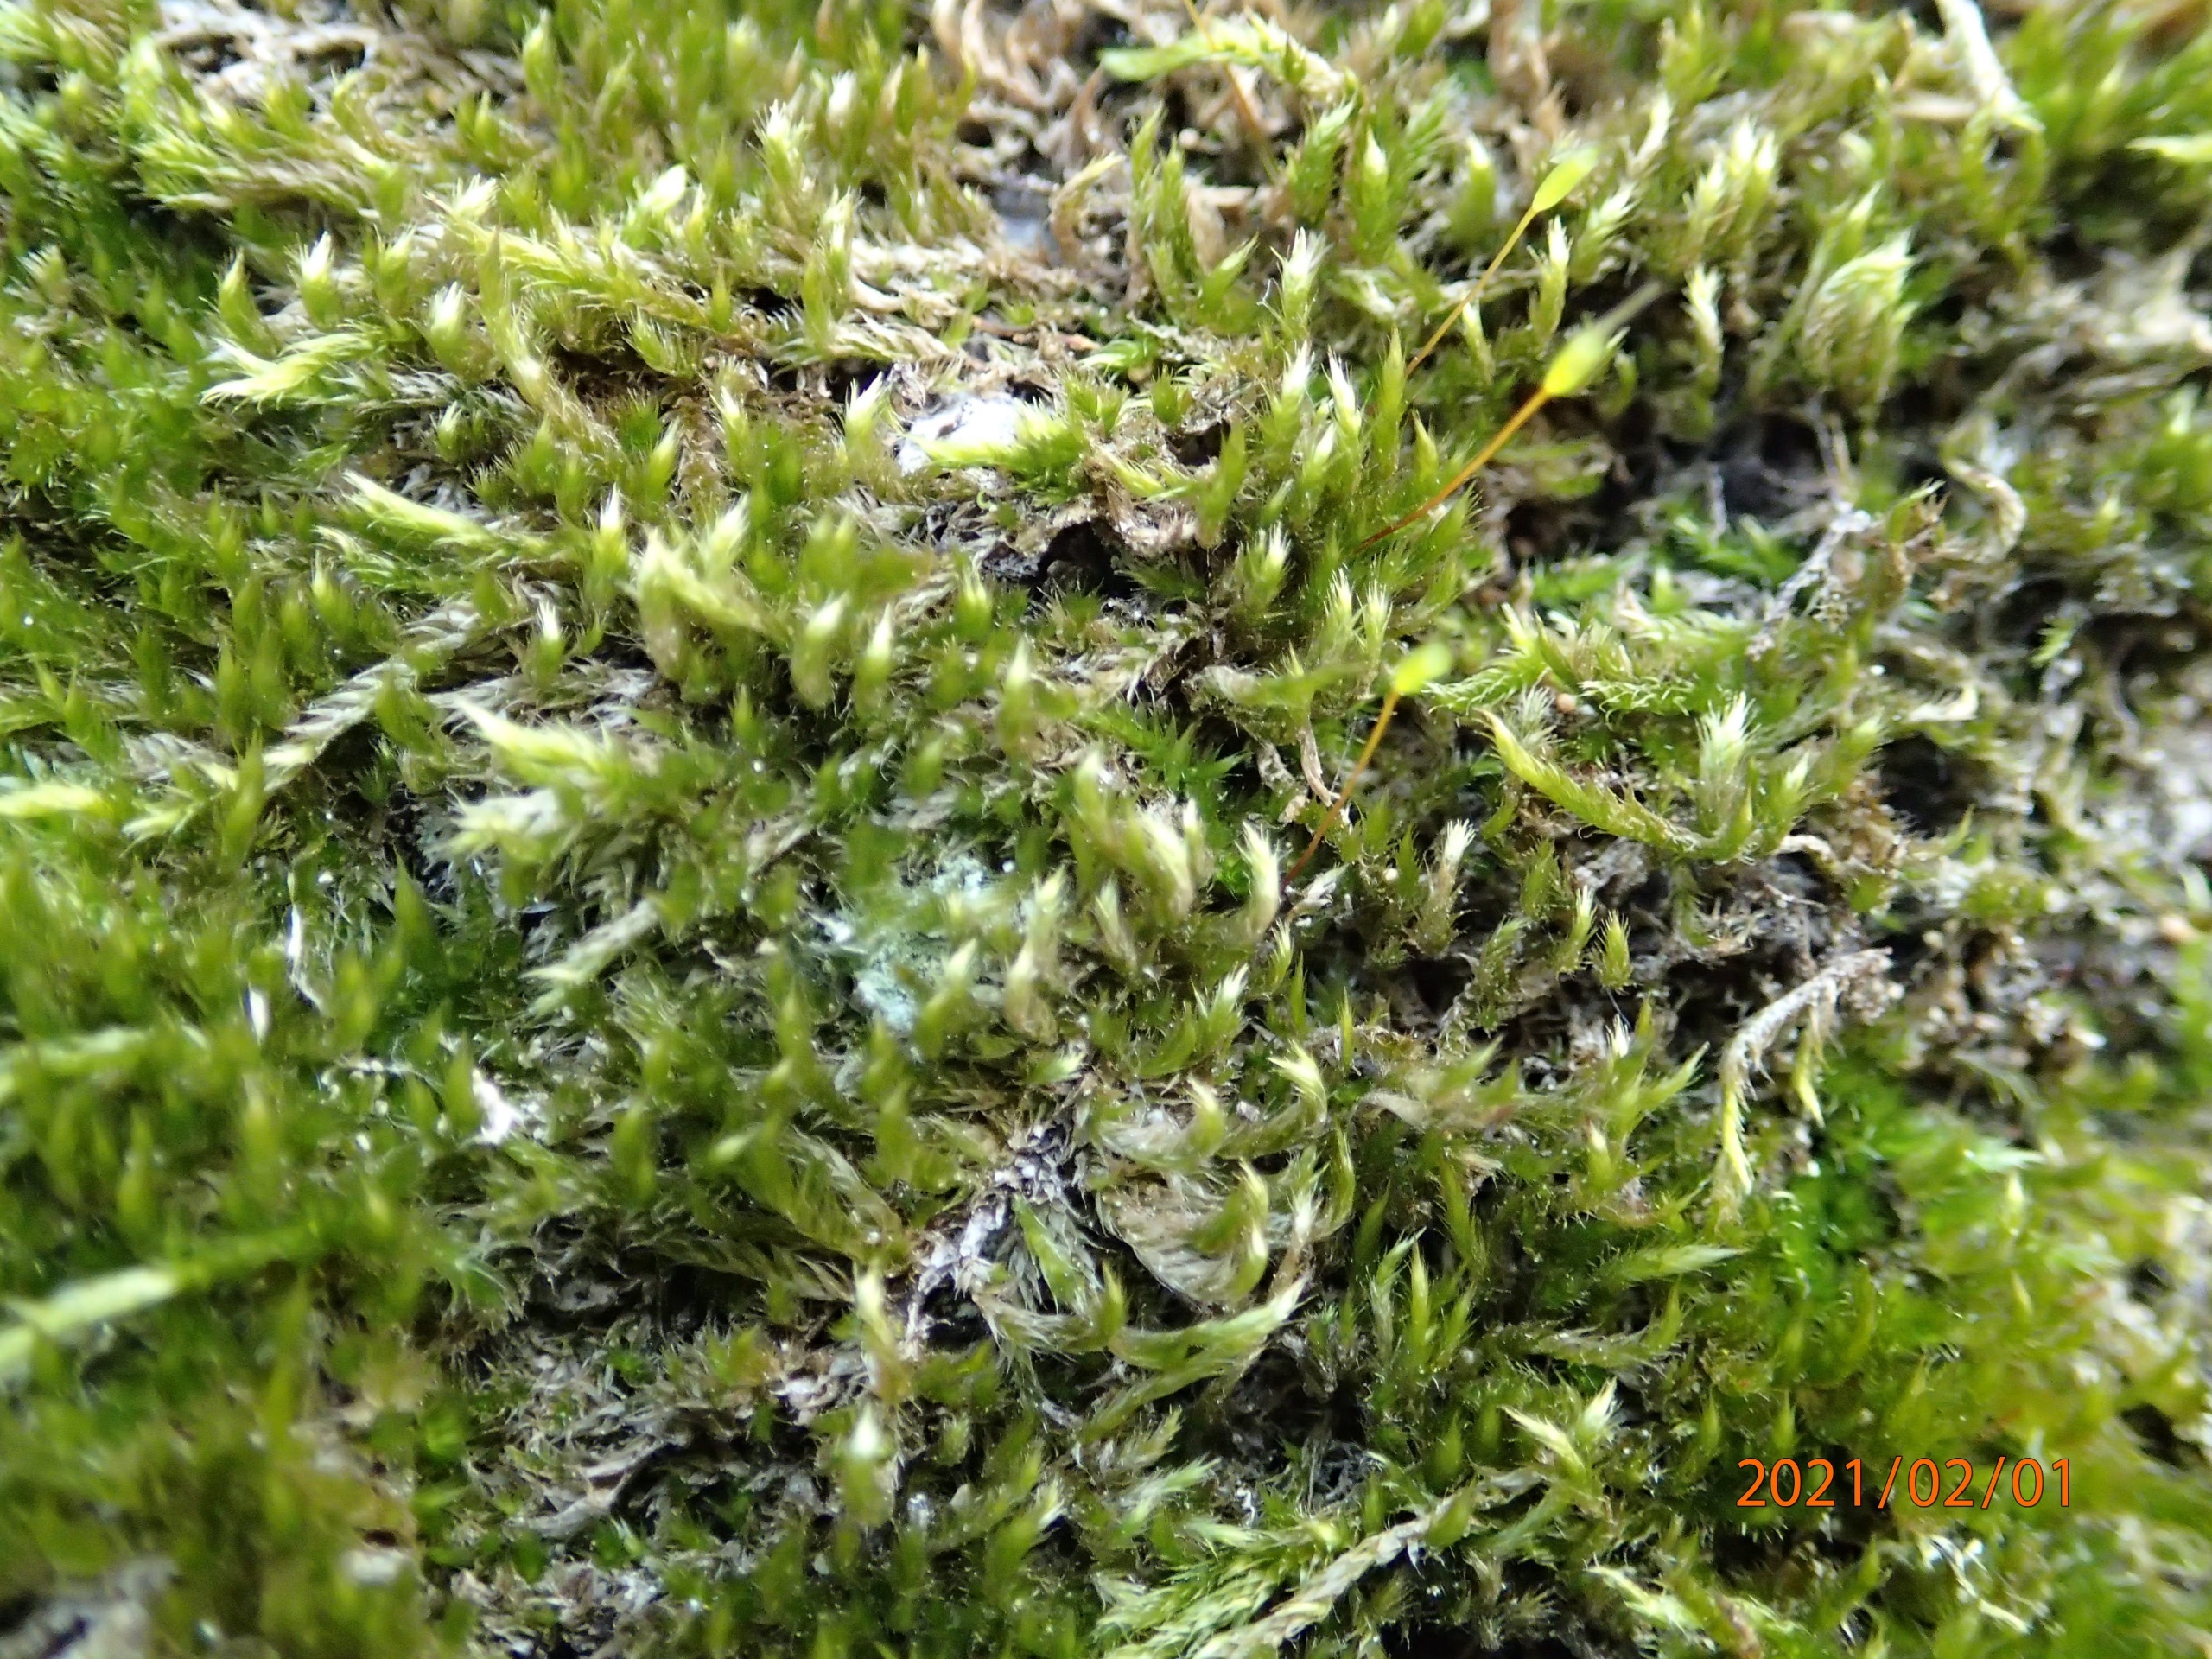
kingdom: Plantae
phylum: Bryophyta
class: Bryopsida
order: Hypnales
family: Hypnaceae
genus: Hypnum
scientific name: Hypnum resupinatum
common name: Ret cypresmos
